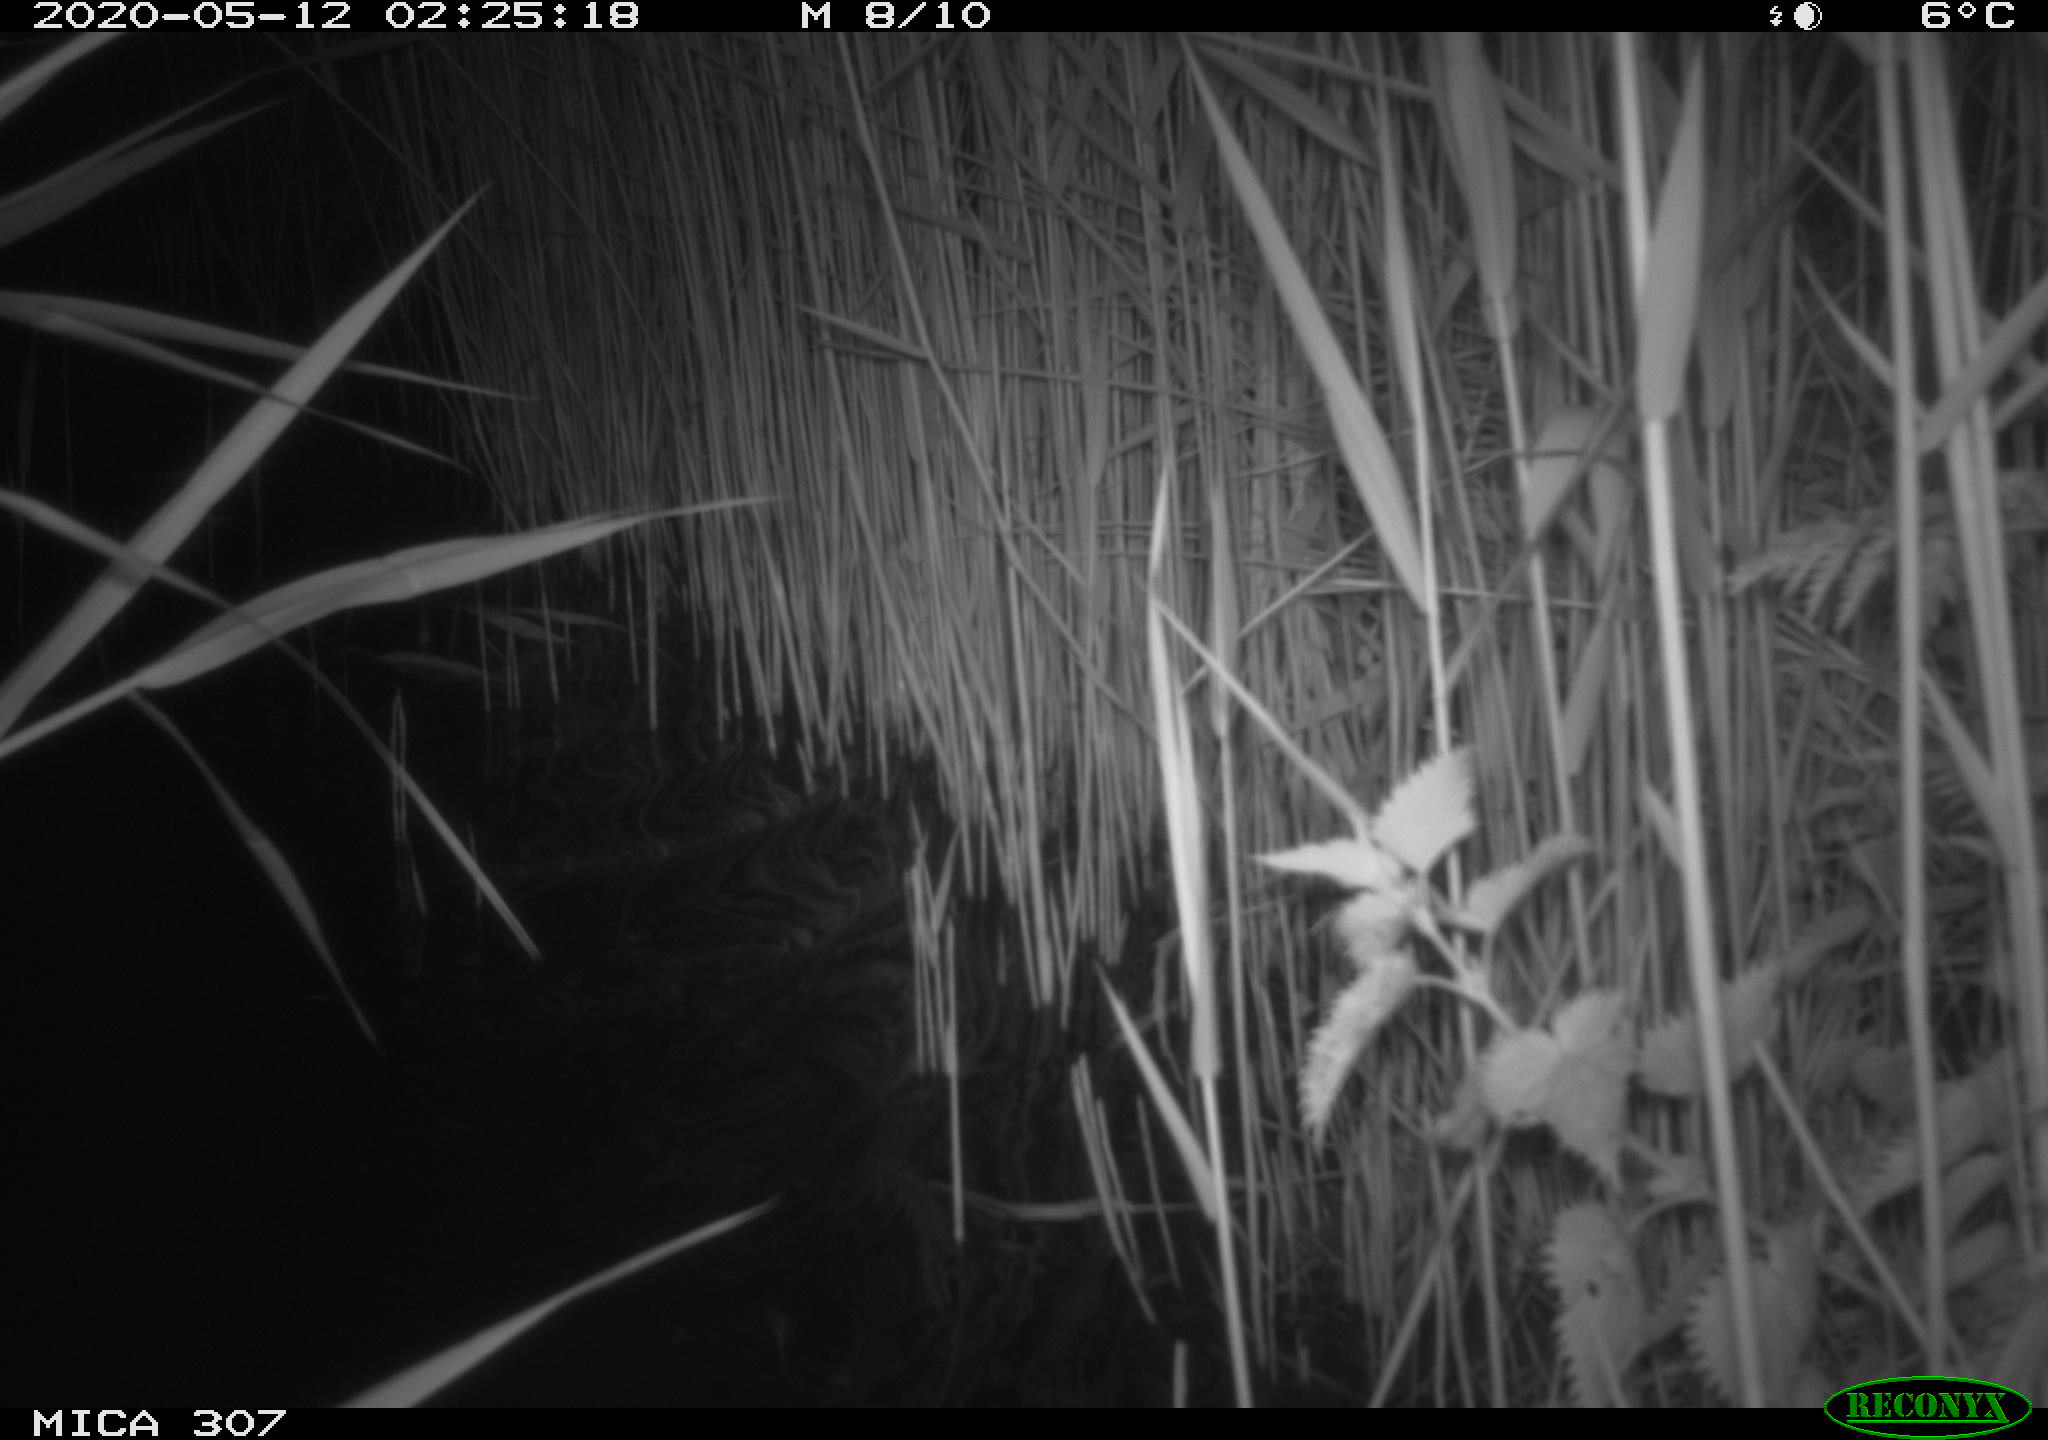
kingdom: Animalia
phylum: Chordata
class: Aves
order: Anseriformes
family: Anatidae
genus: Anas
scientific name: Anas platyrhynchos
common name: Mallard
